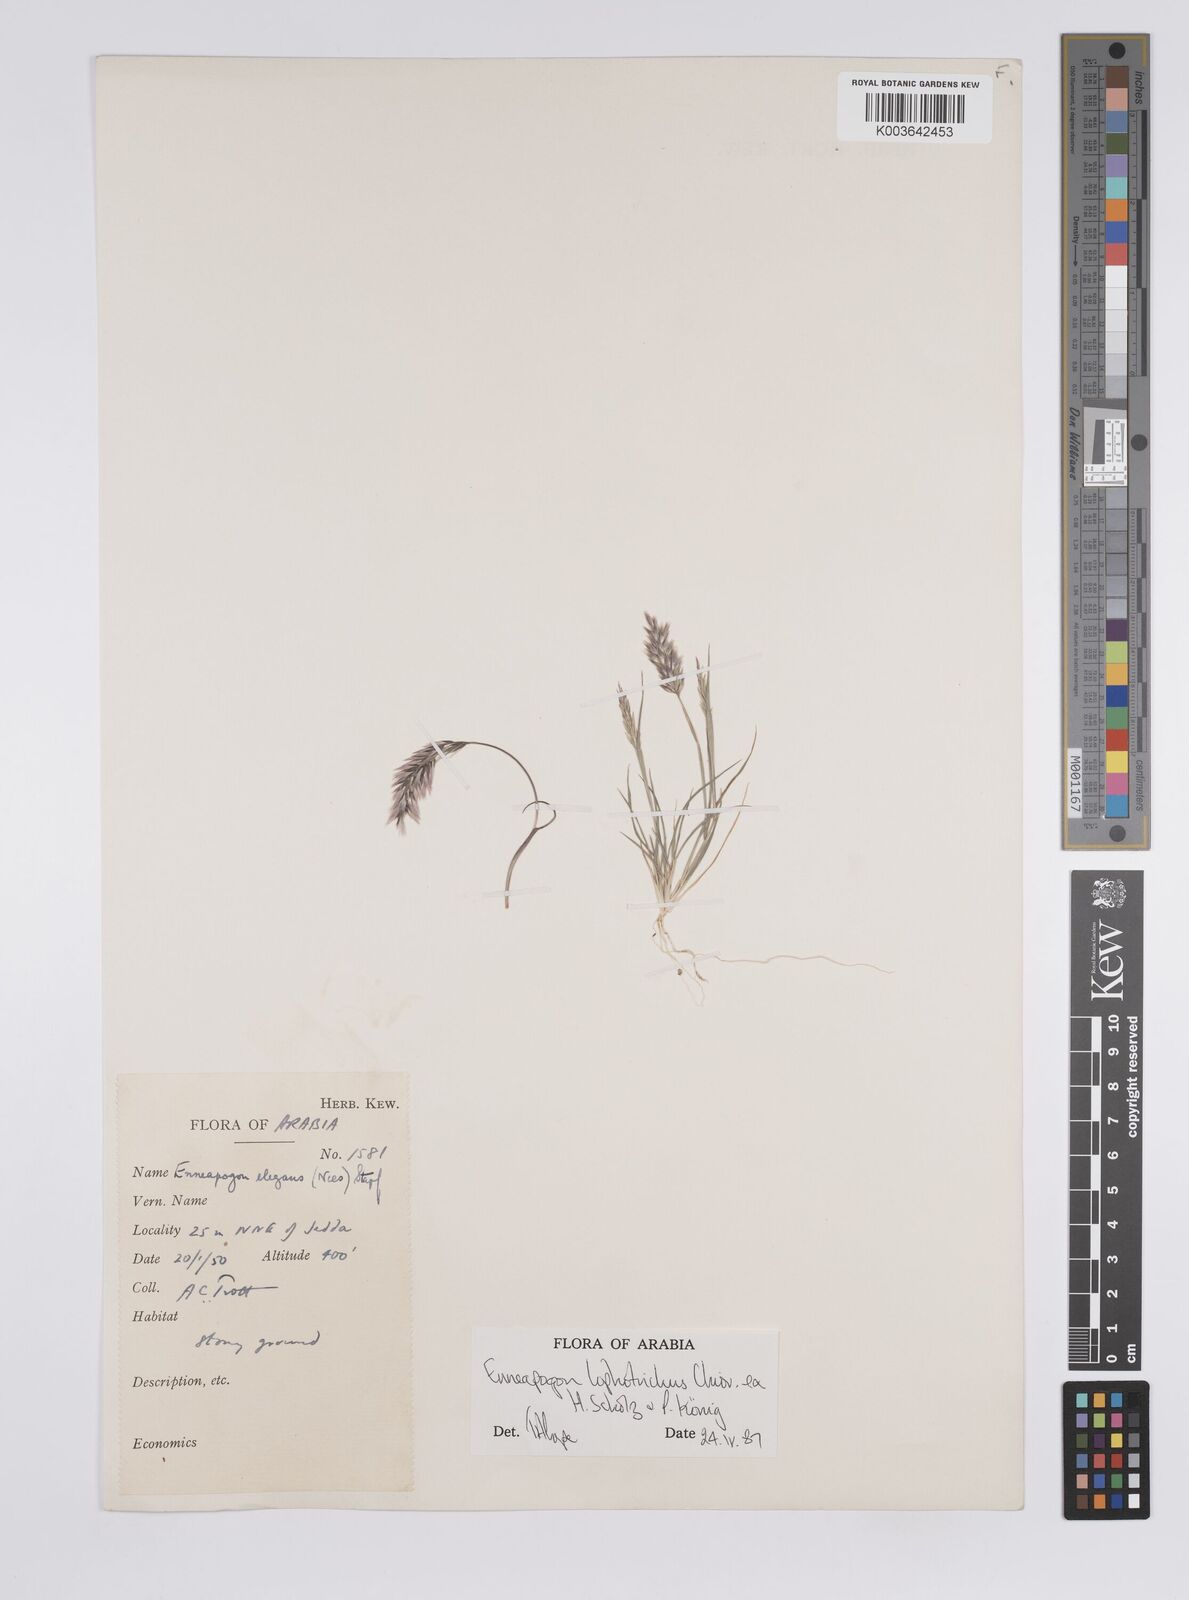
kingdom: Plantae
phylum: Tracheophyta
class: Liliopsida
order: Poales
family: Poaceae
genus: Enneapogon
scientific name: Enneapogon lophotrichus
